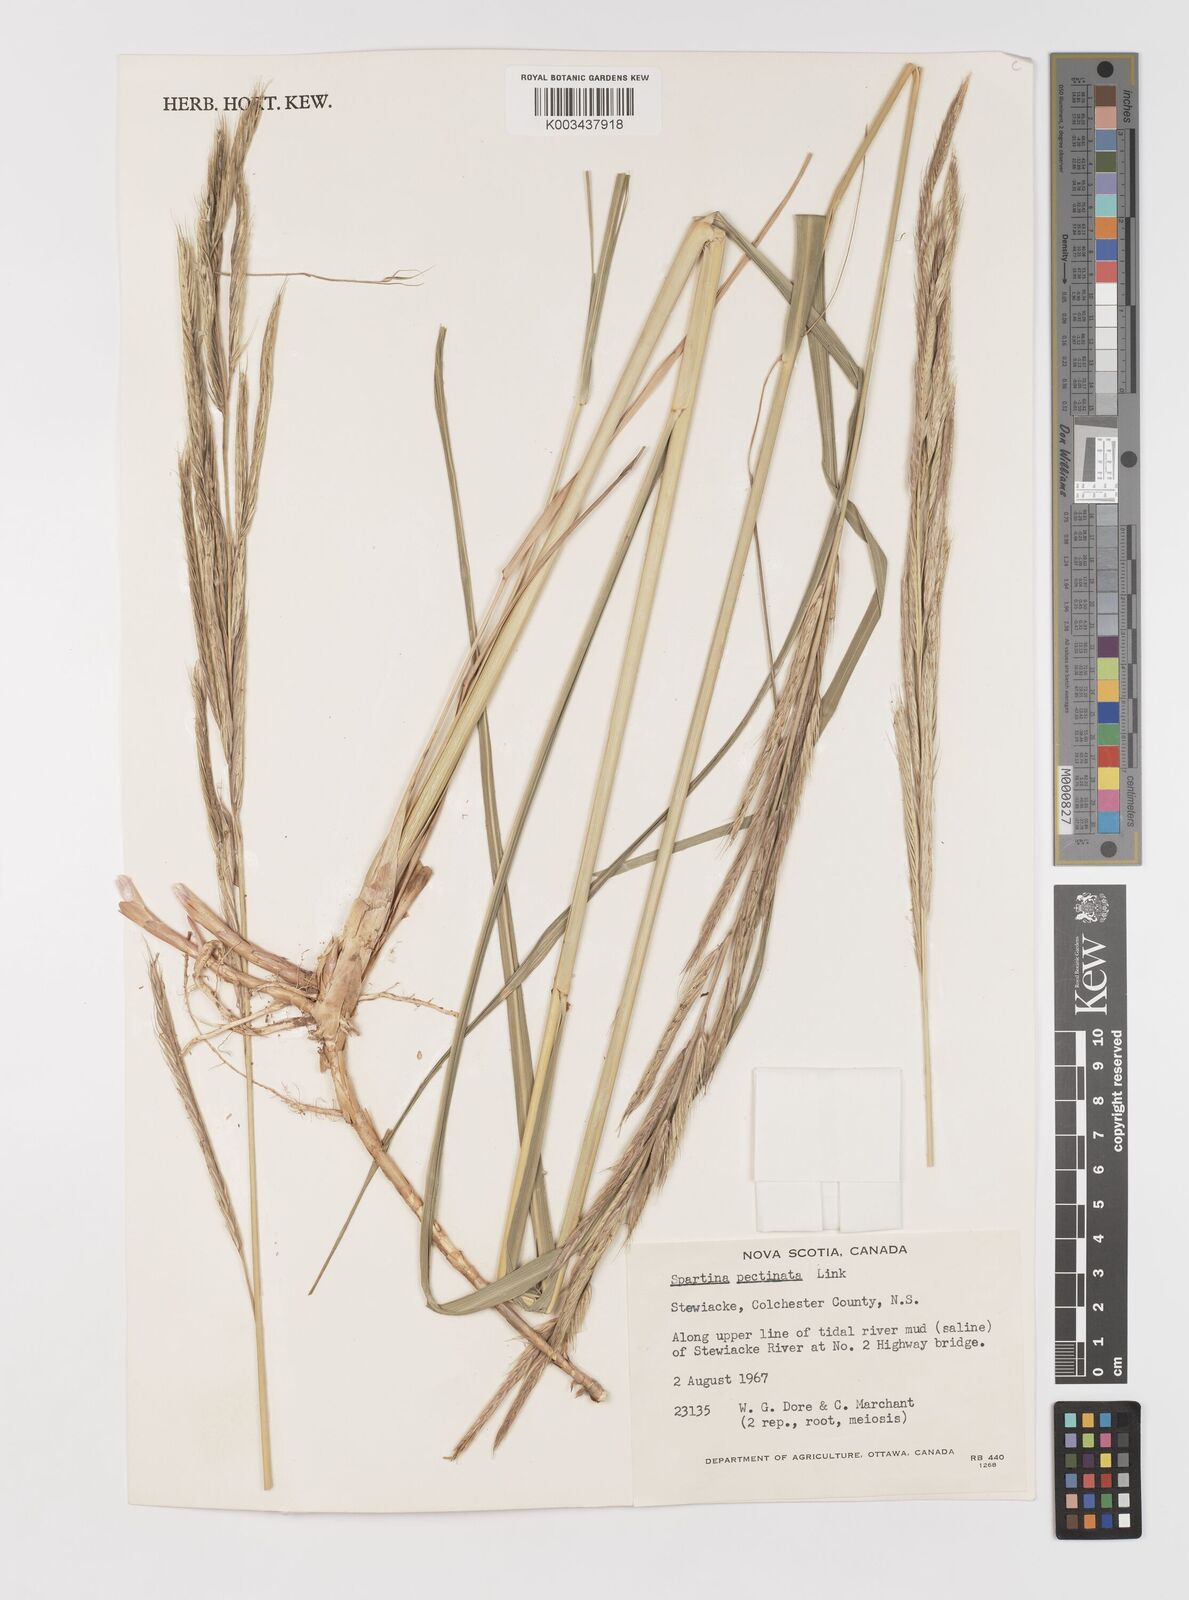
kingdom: Plantae
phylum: Tracheophyta
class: Liliopsida
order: Poales
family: Poaceae
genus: Sporobolus
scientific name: Sporobolus michauxianus
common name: Freshwater cordgrass
